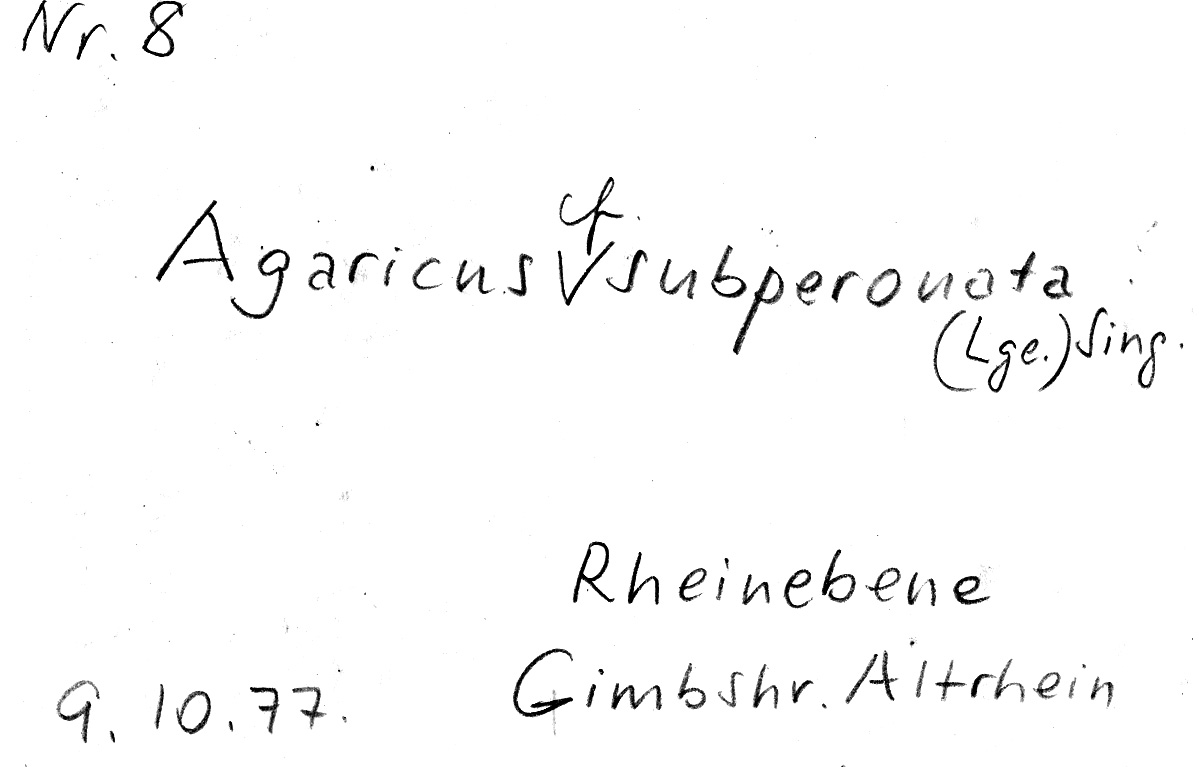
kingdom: Fungi
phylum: Basidiomycota
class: Agaricomycetes
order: Agaricales
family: Agaricaceae
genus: Agaricus
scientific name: Agaricus subperonatus
